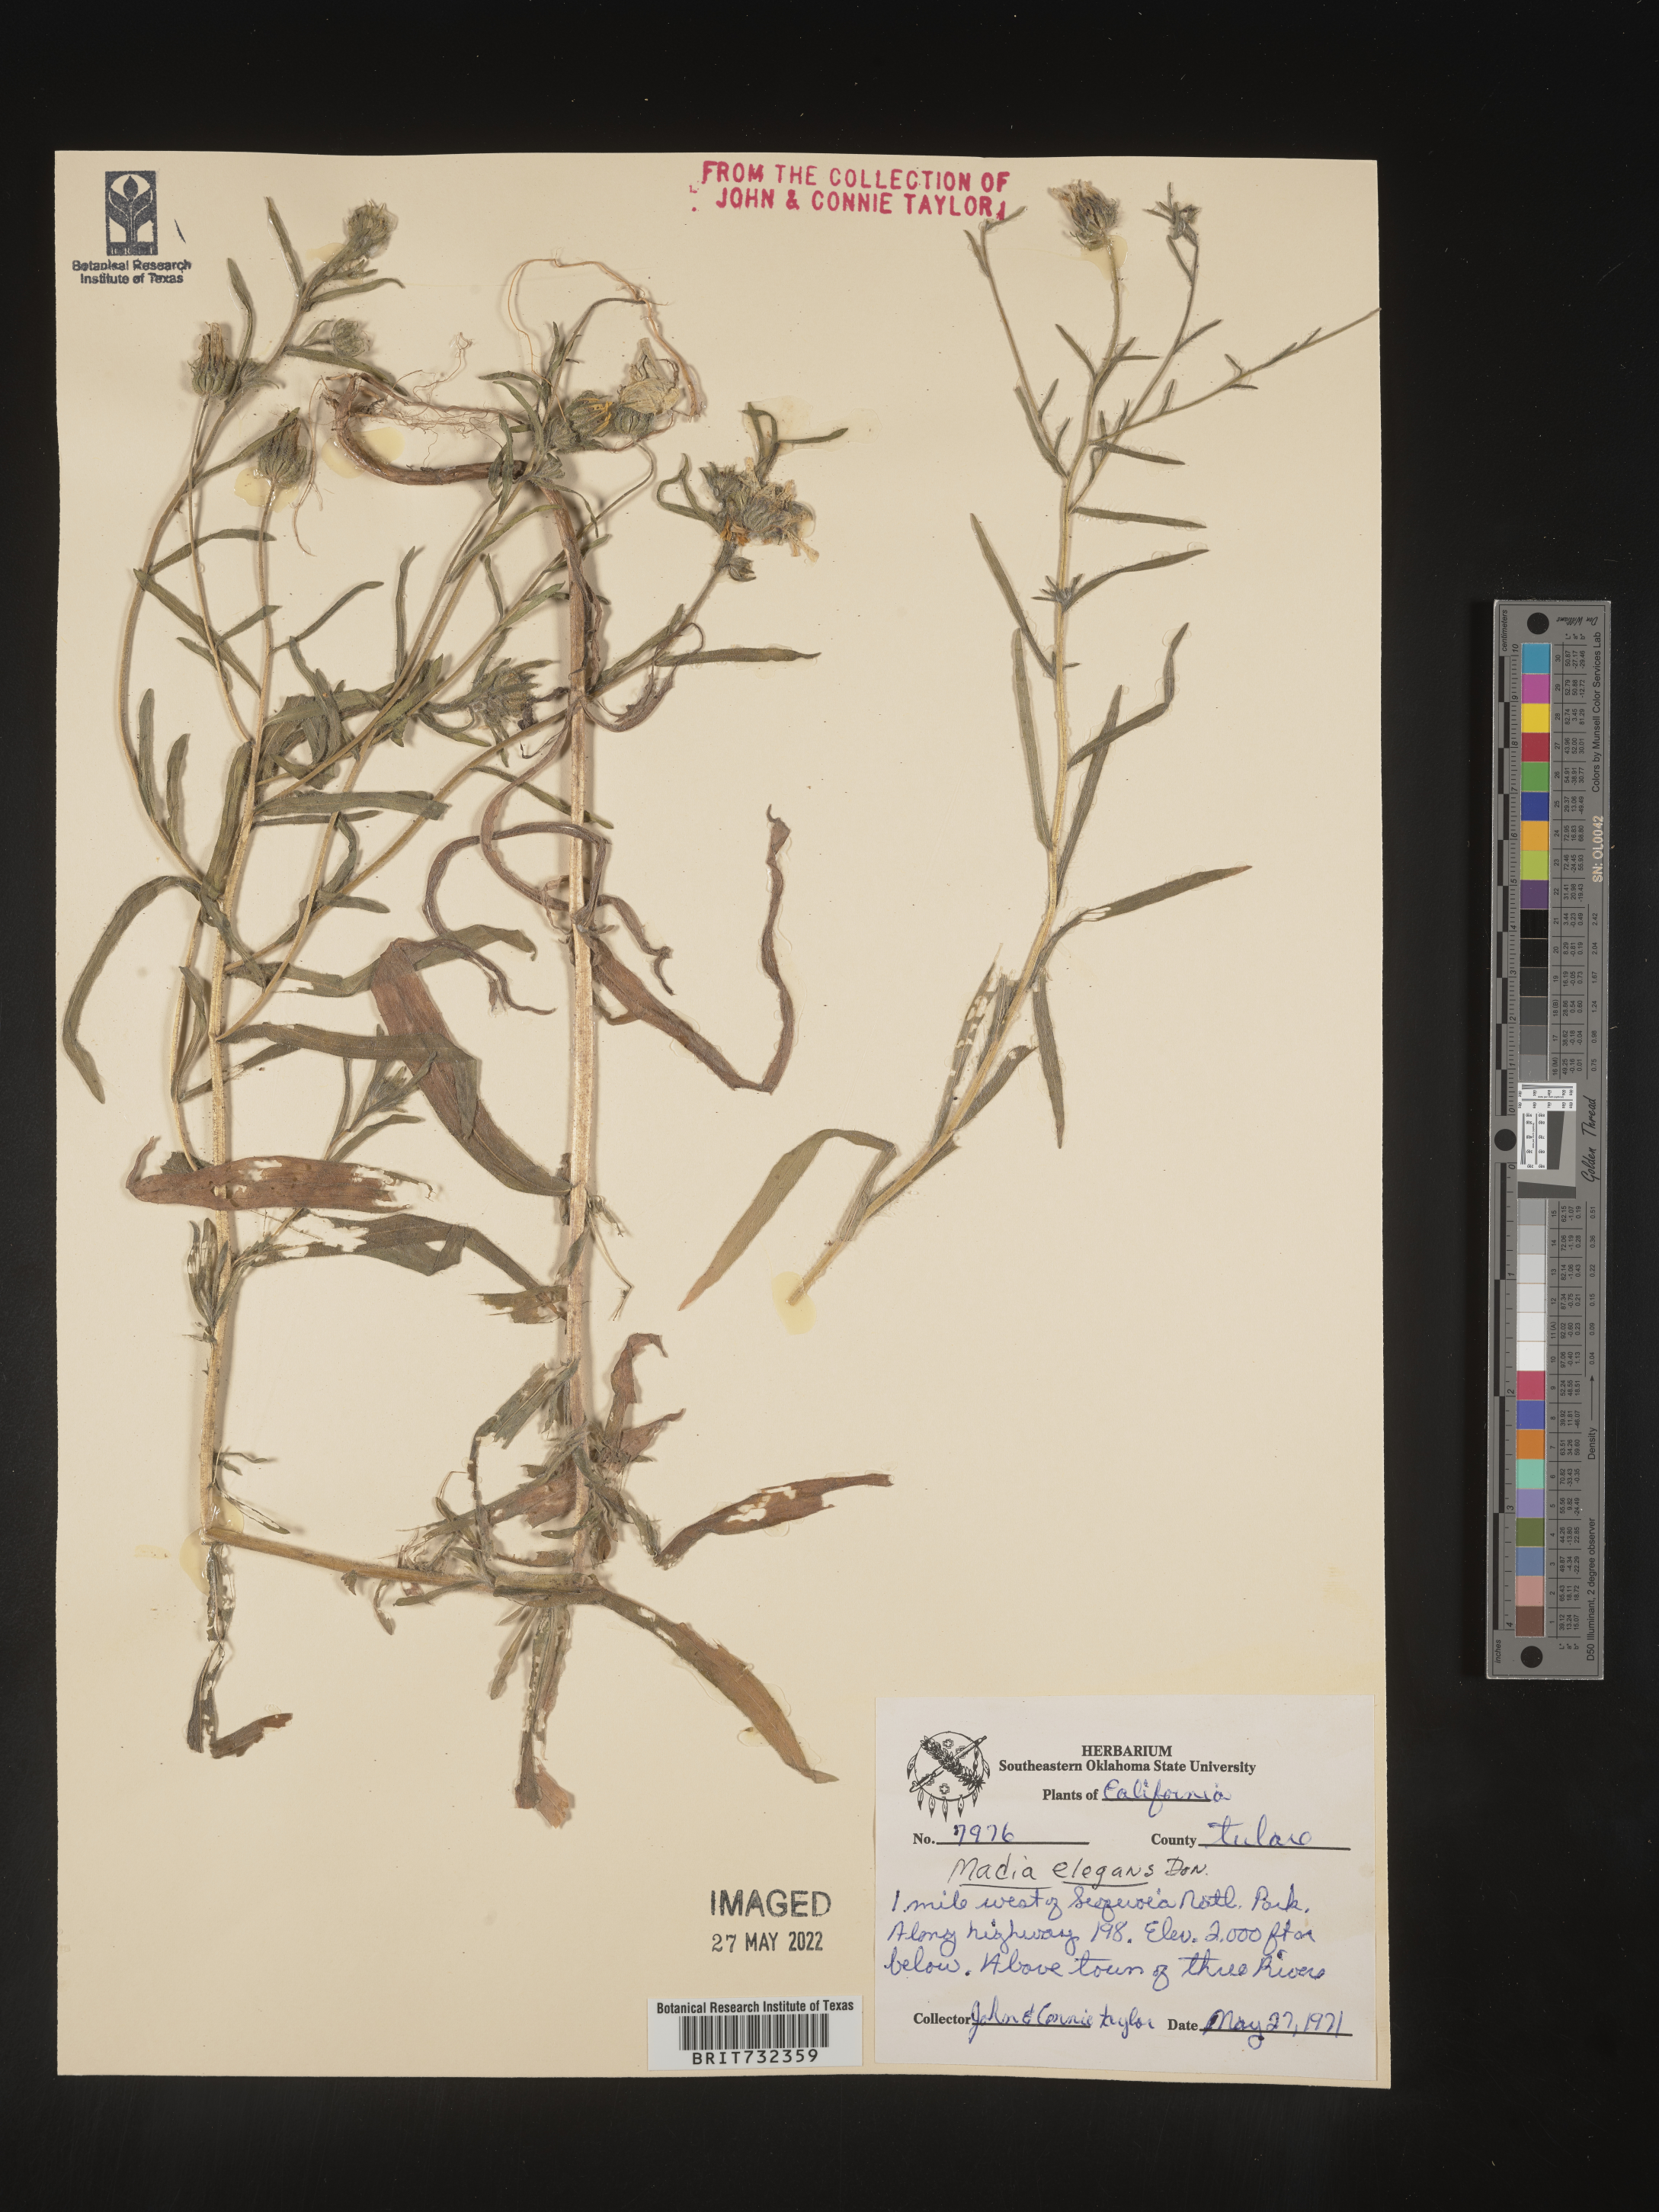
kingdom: Plantae
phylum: Tracheophyta
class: Magnoliopsida
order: Asterales
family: Asteraceae
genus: Madia
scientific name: Madia
